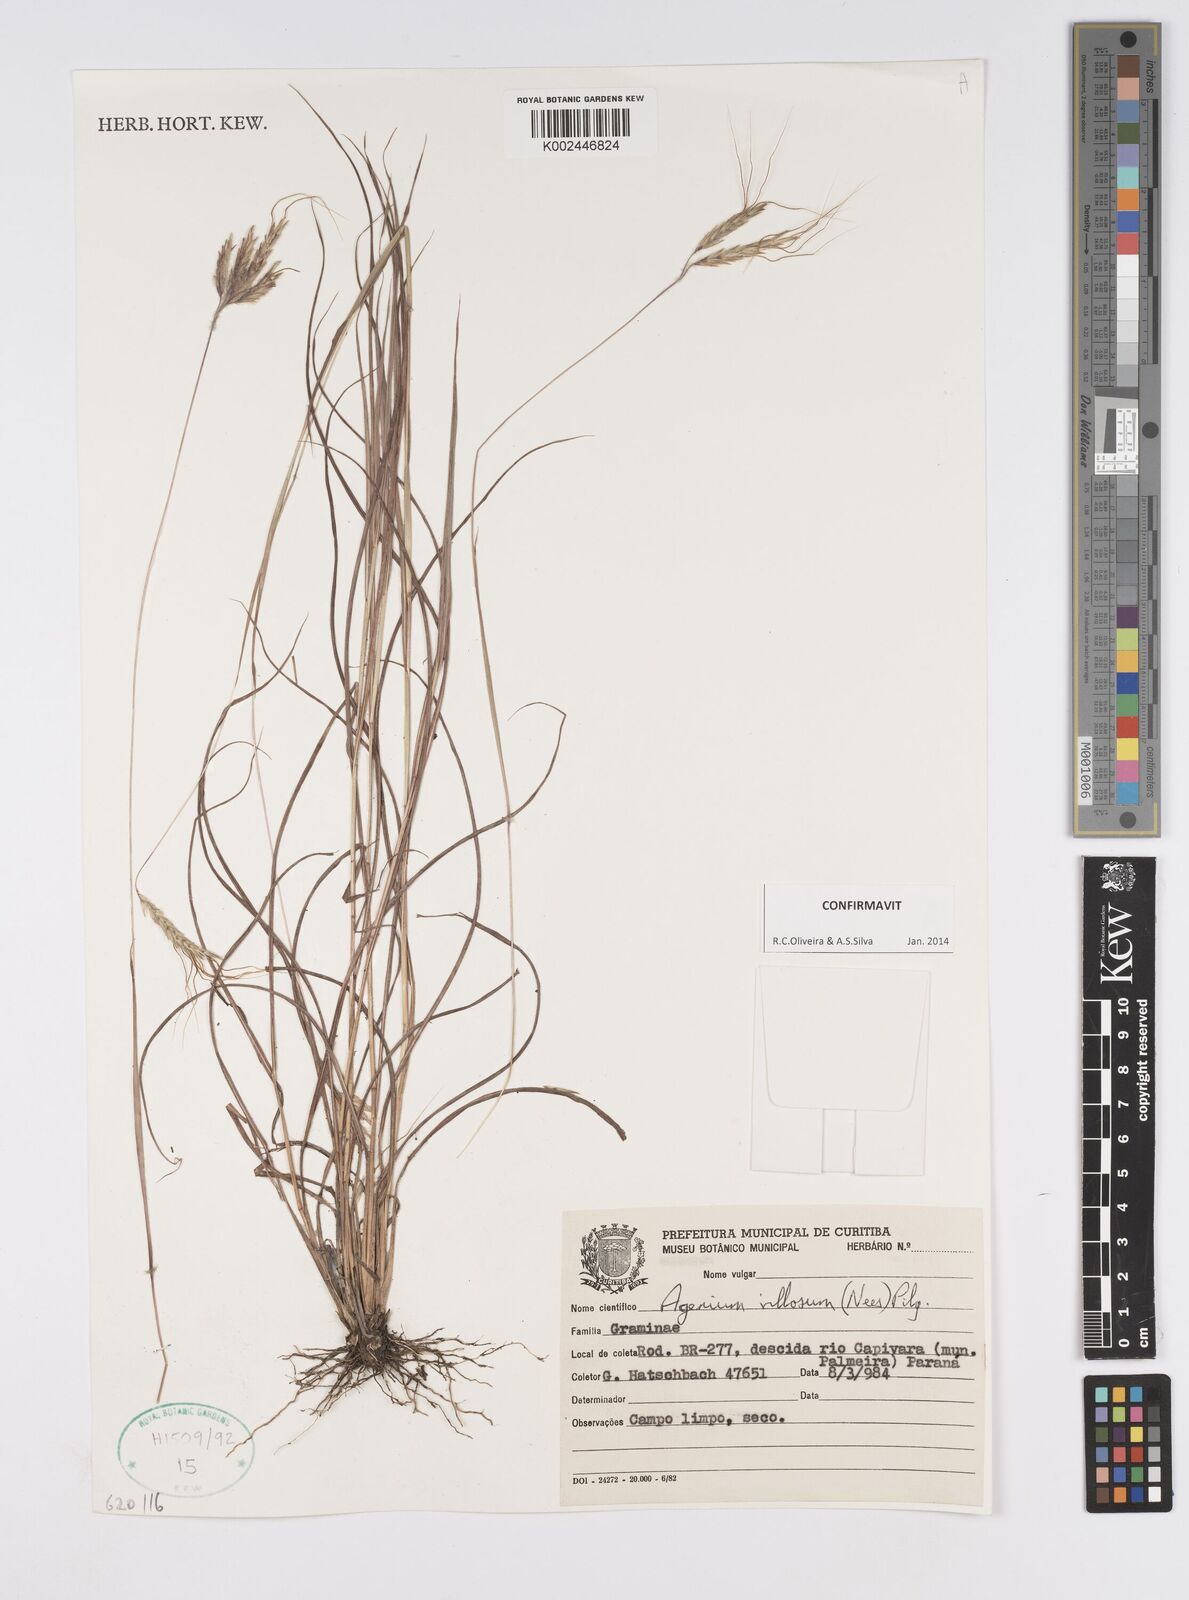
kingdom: Plantae
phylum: Tracheophyta
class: Liliopsida
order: Poales
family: Poaceae
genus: Agenium
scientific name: Agenium villosum
